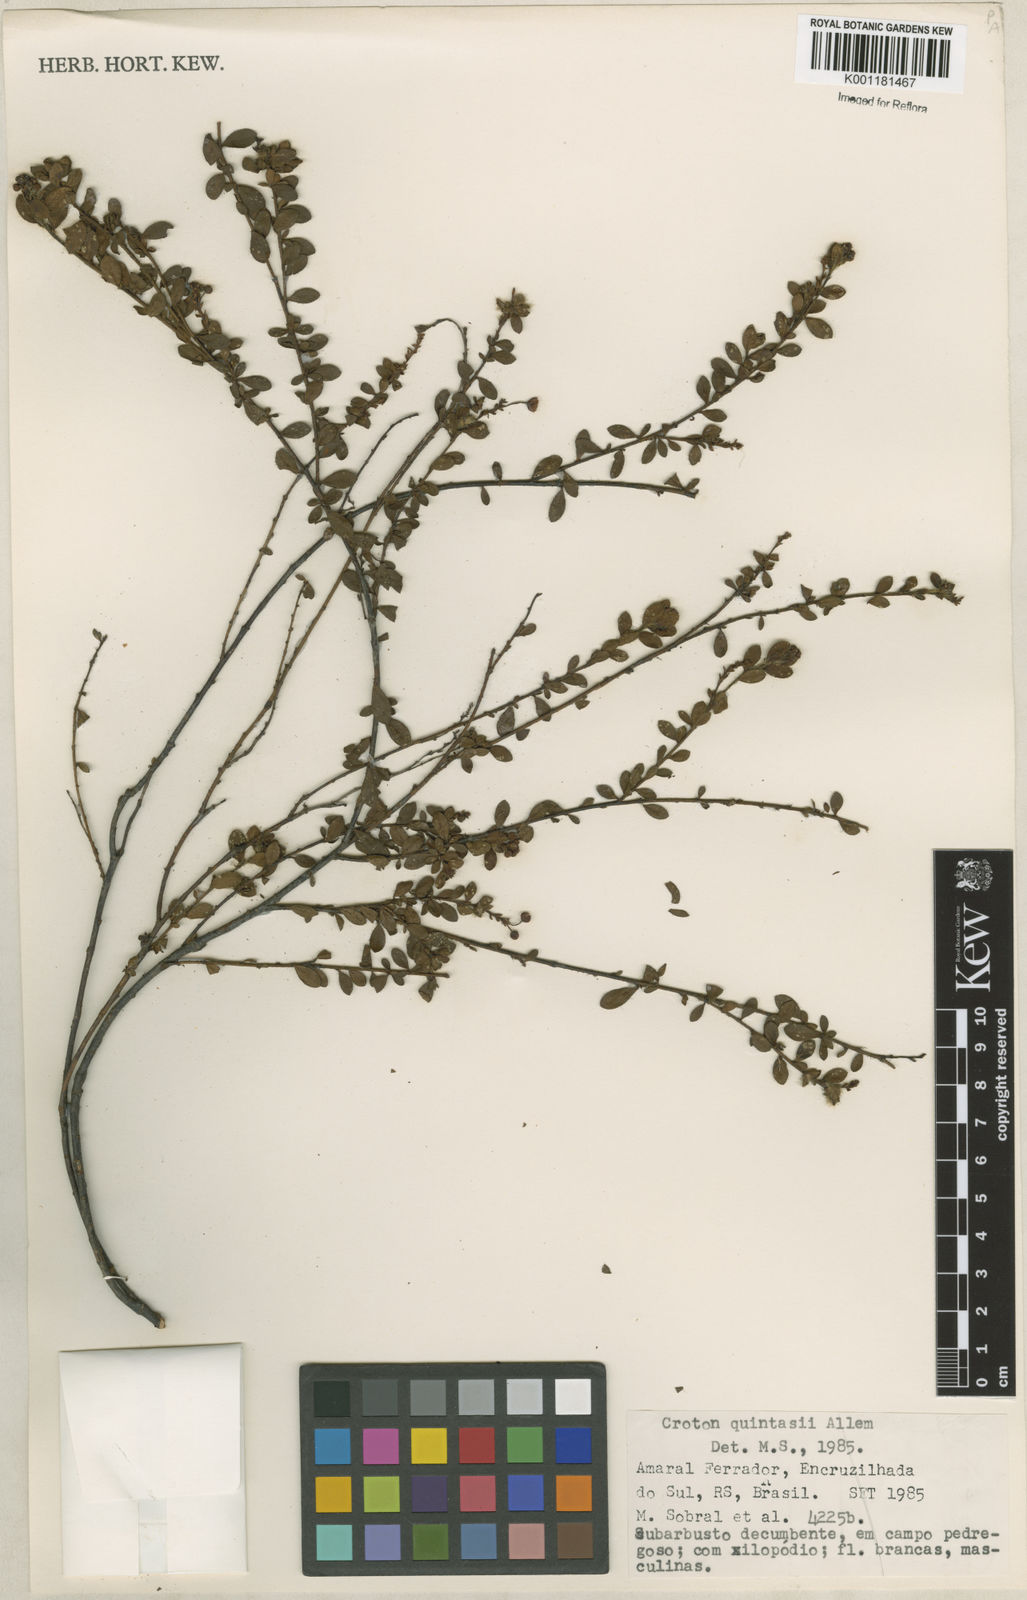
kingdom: Plantae
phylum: Tracheophyta
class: Magnoliopsida
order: Malpighiales
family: Euphorbiaceae
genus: Croton
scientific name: Croton quintasii
